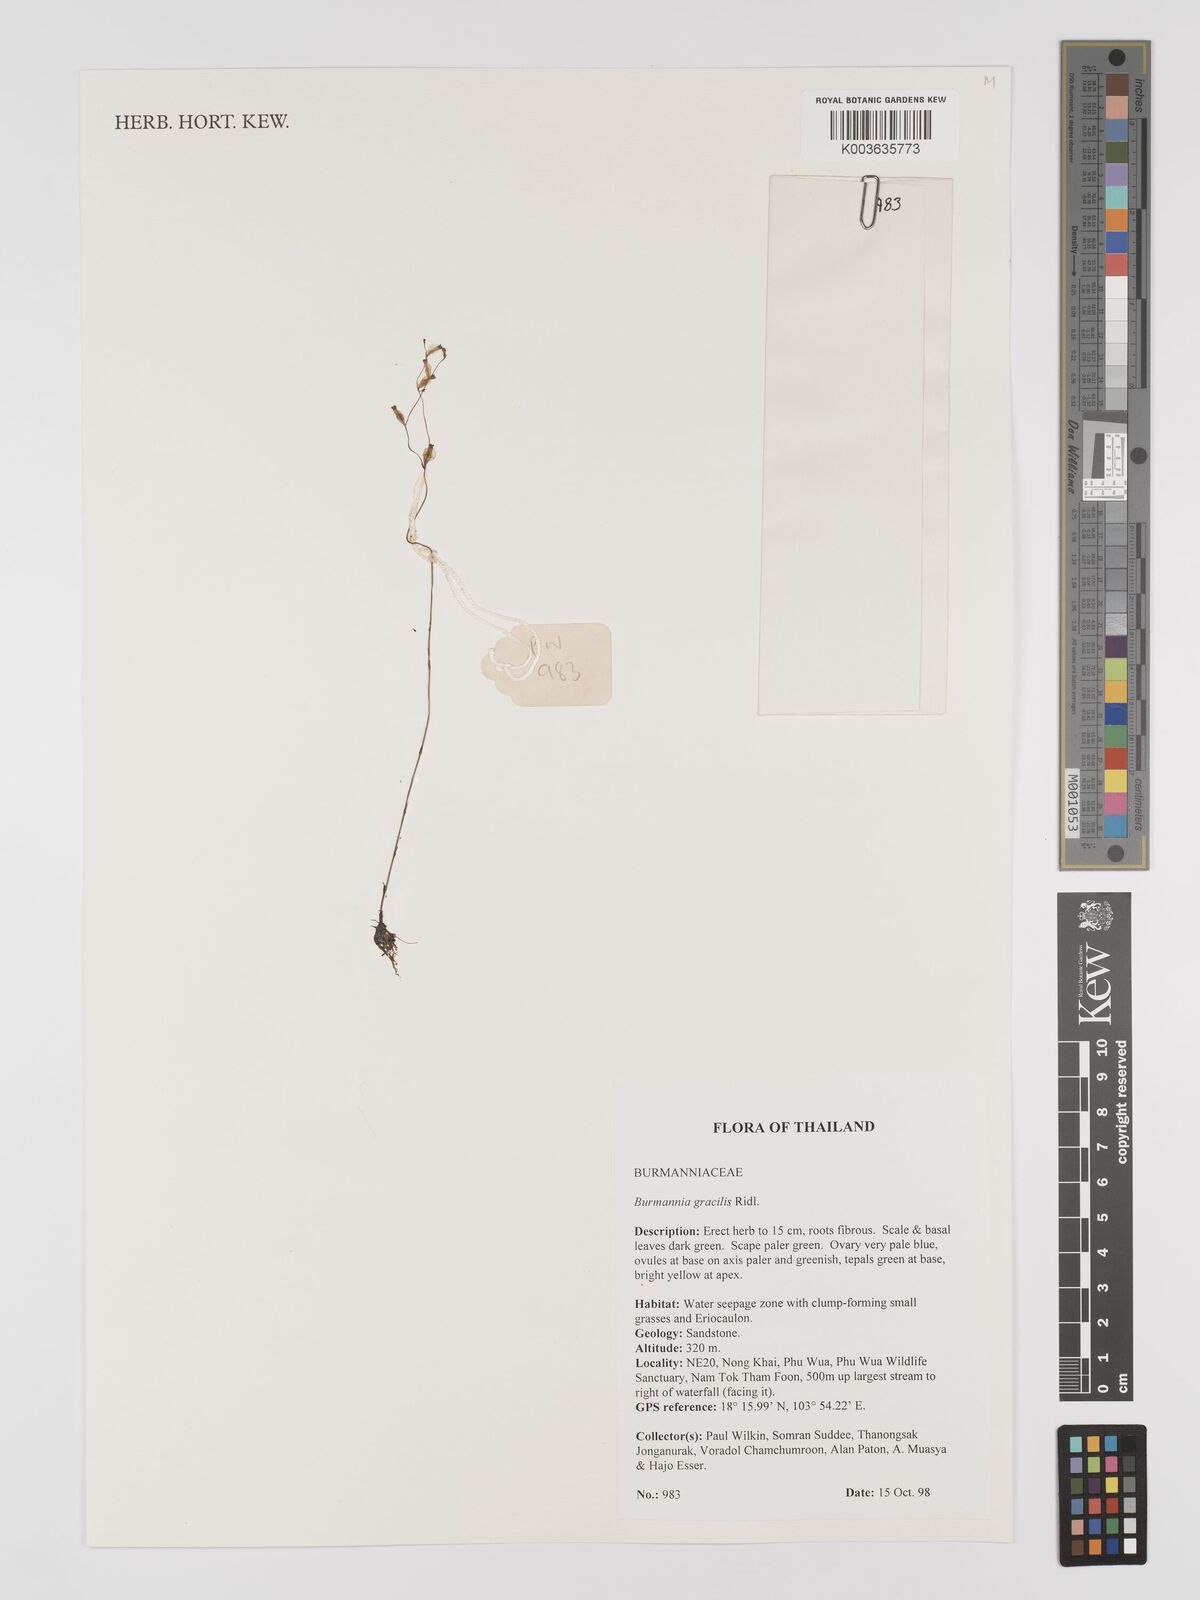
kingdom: Plantae
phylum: Tracheophyta
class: Liliopsida
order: Dioscoreales
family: Burmanniaceae
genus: Burmannia
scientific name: Burmannia gracilis
